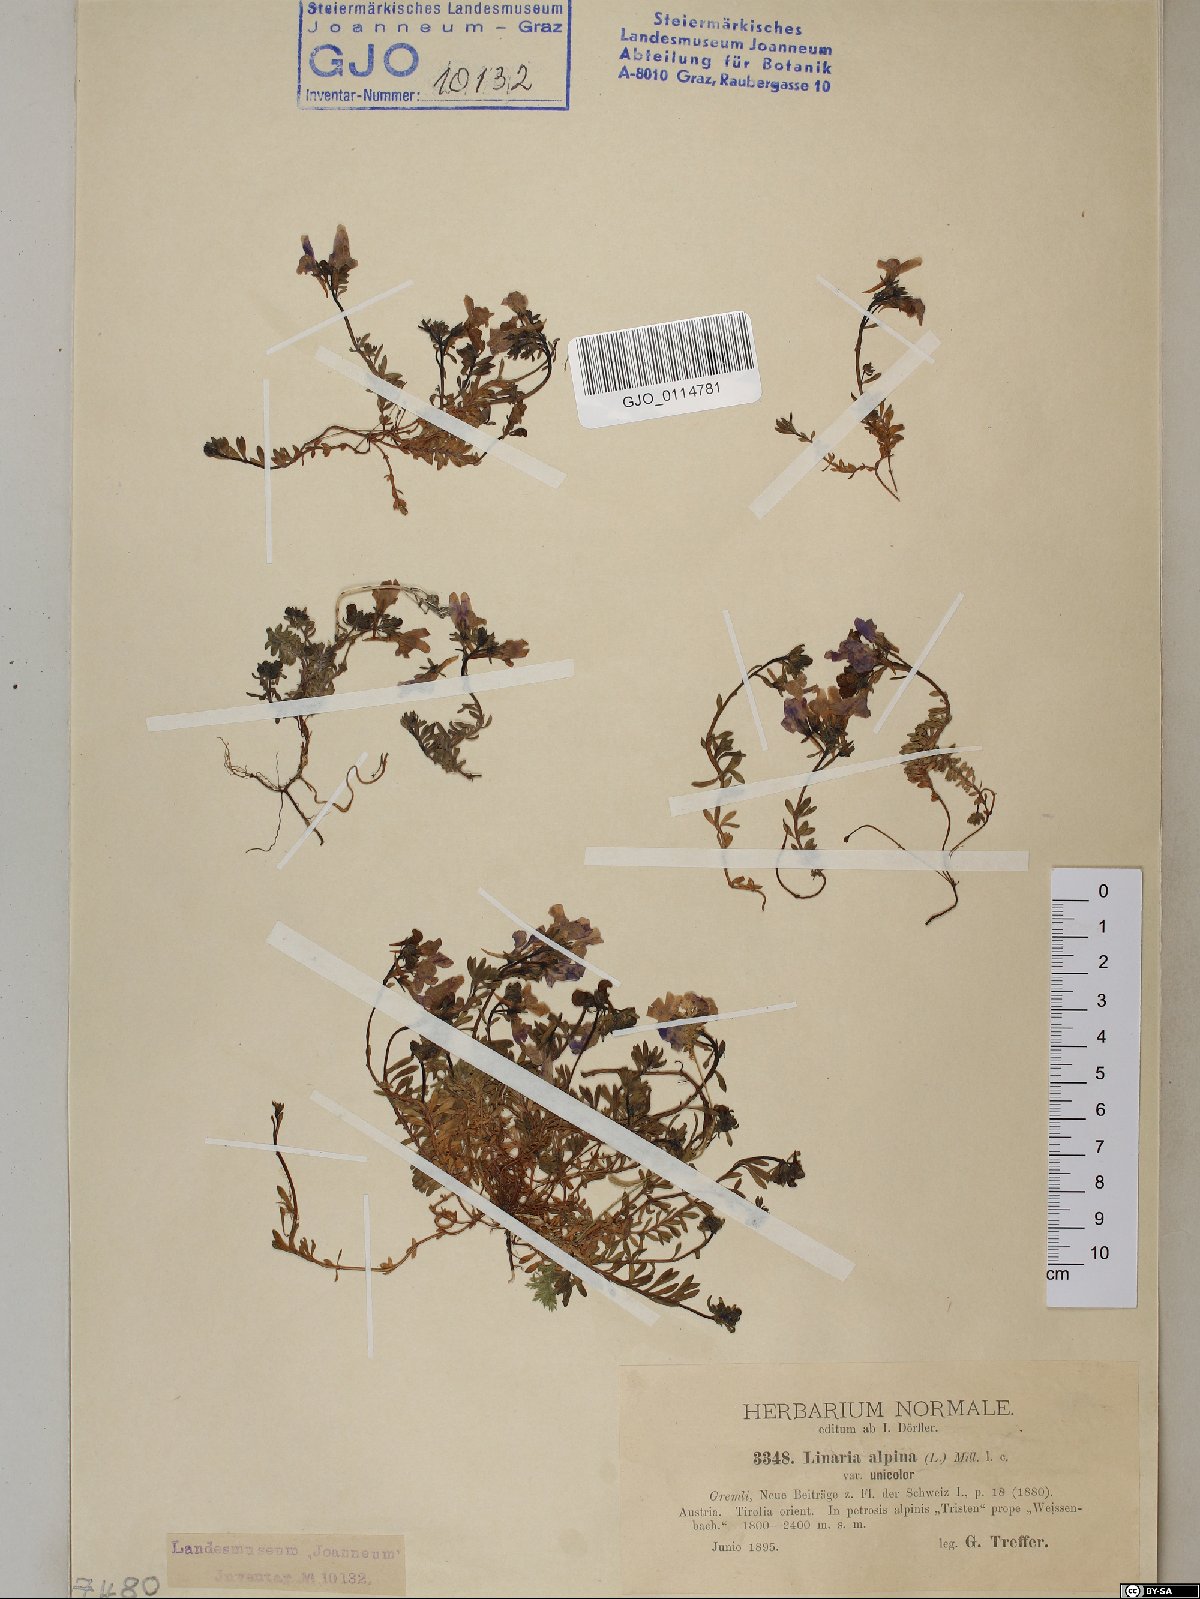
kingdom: Plantae
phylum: Tracheophyta
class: Magnoliopsida
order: Lamiales
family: Plantaginaceae
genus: Linaria
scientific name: Linaria alpina
